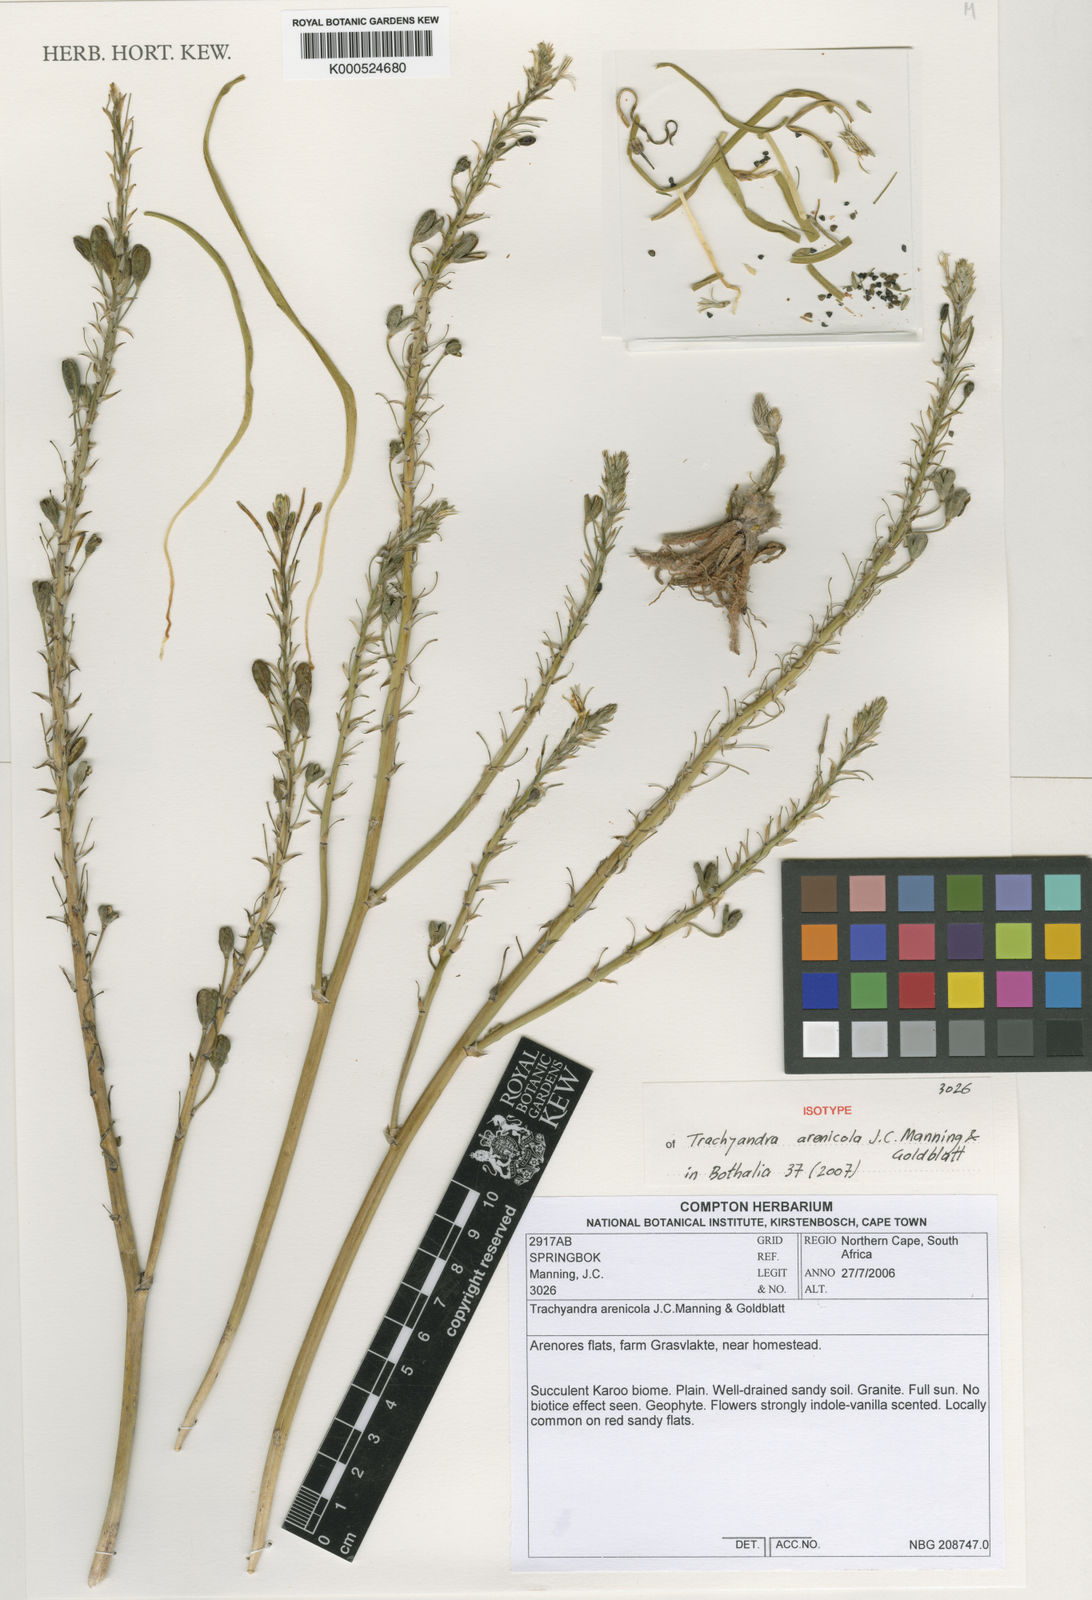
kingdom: Plantae
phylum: Tracheophyta
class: Liliopsida
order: Asparagales
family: Asphodelaceae
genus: Trachyandra
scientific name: Trachyandra arenicola
